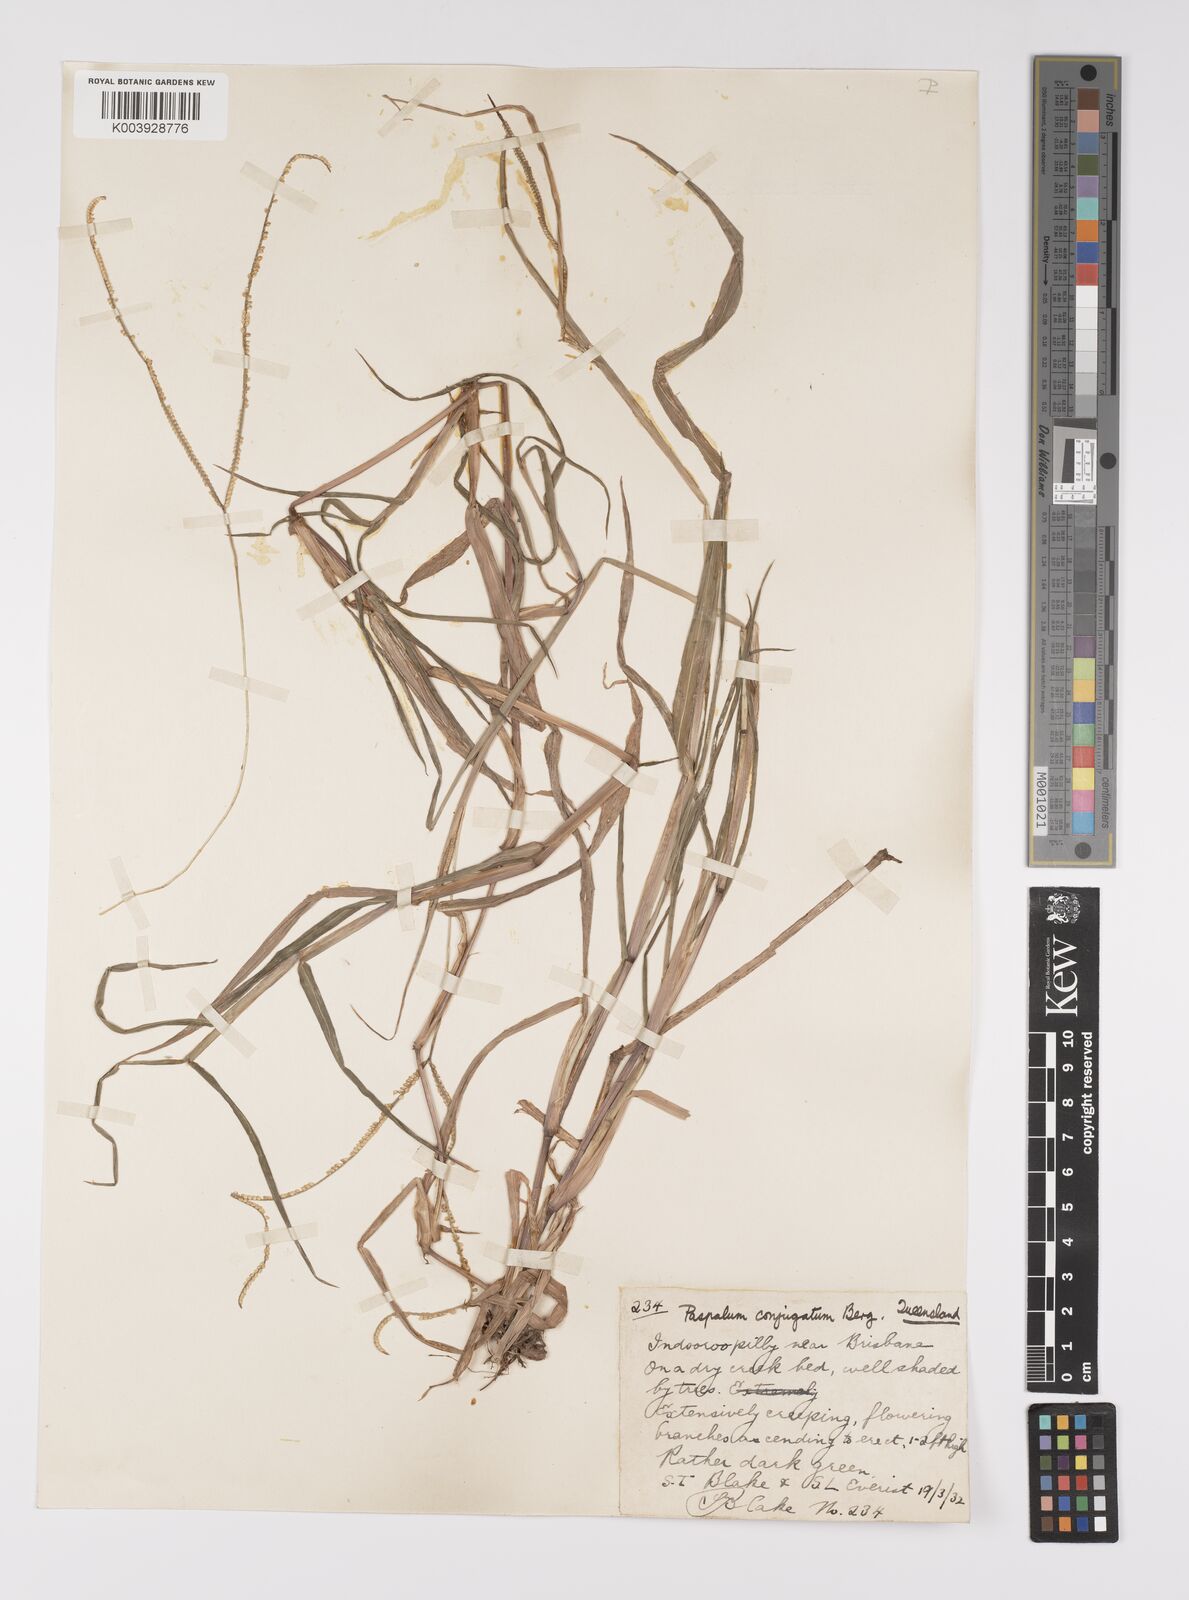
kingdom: Plantae
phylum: Tracheophyta
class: Liliopsida
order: Poales
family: Poaceae
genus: Paspalum
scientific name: Paspalum conjugatum
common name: Hilograss
